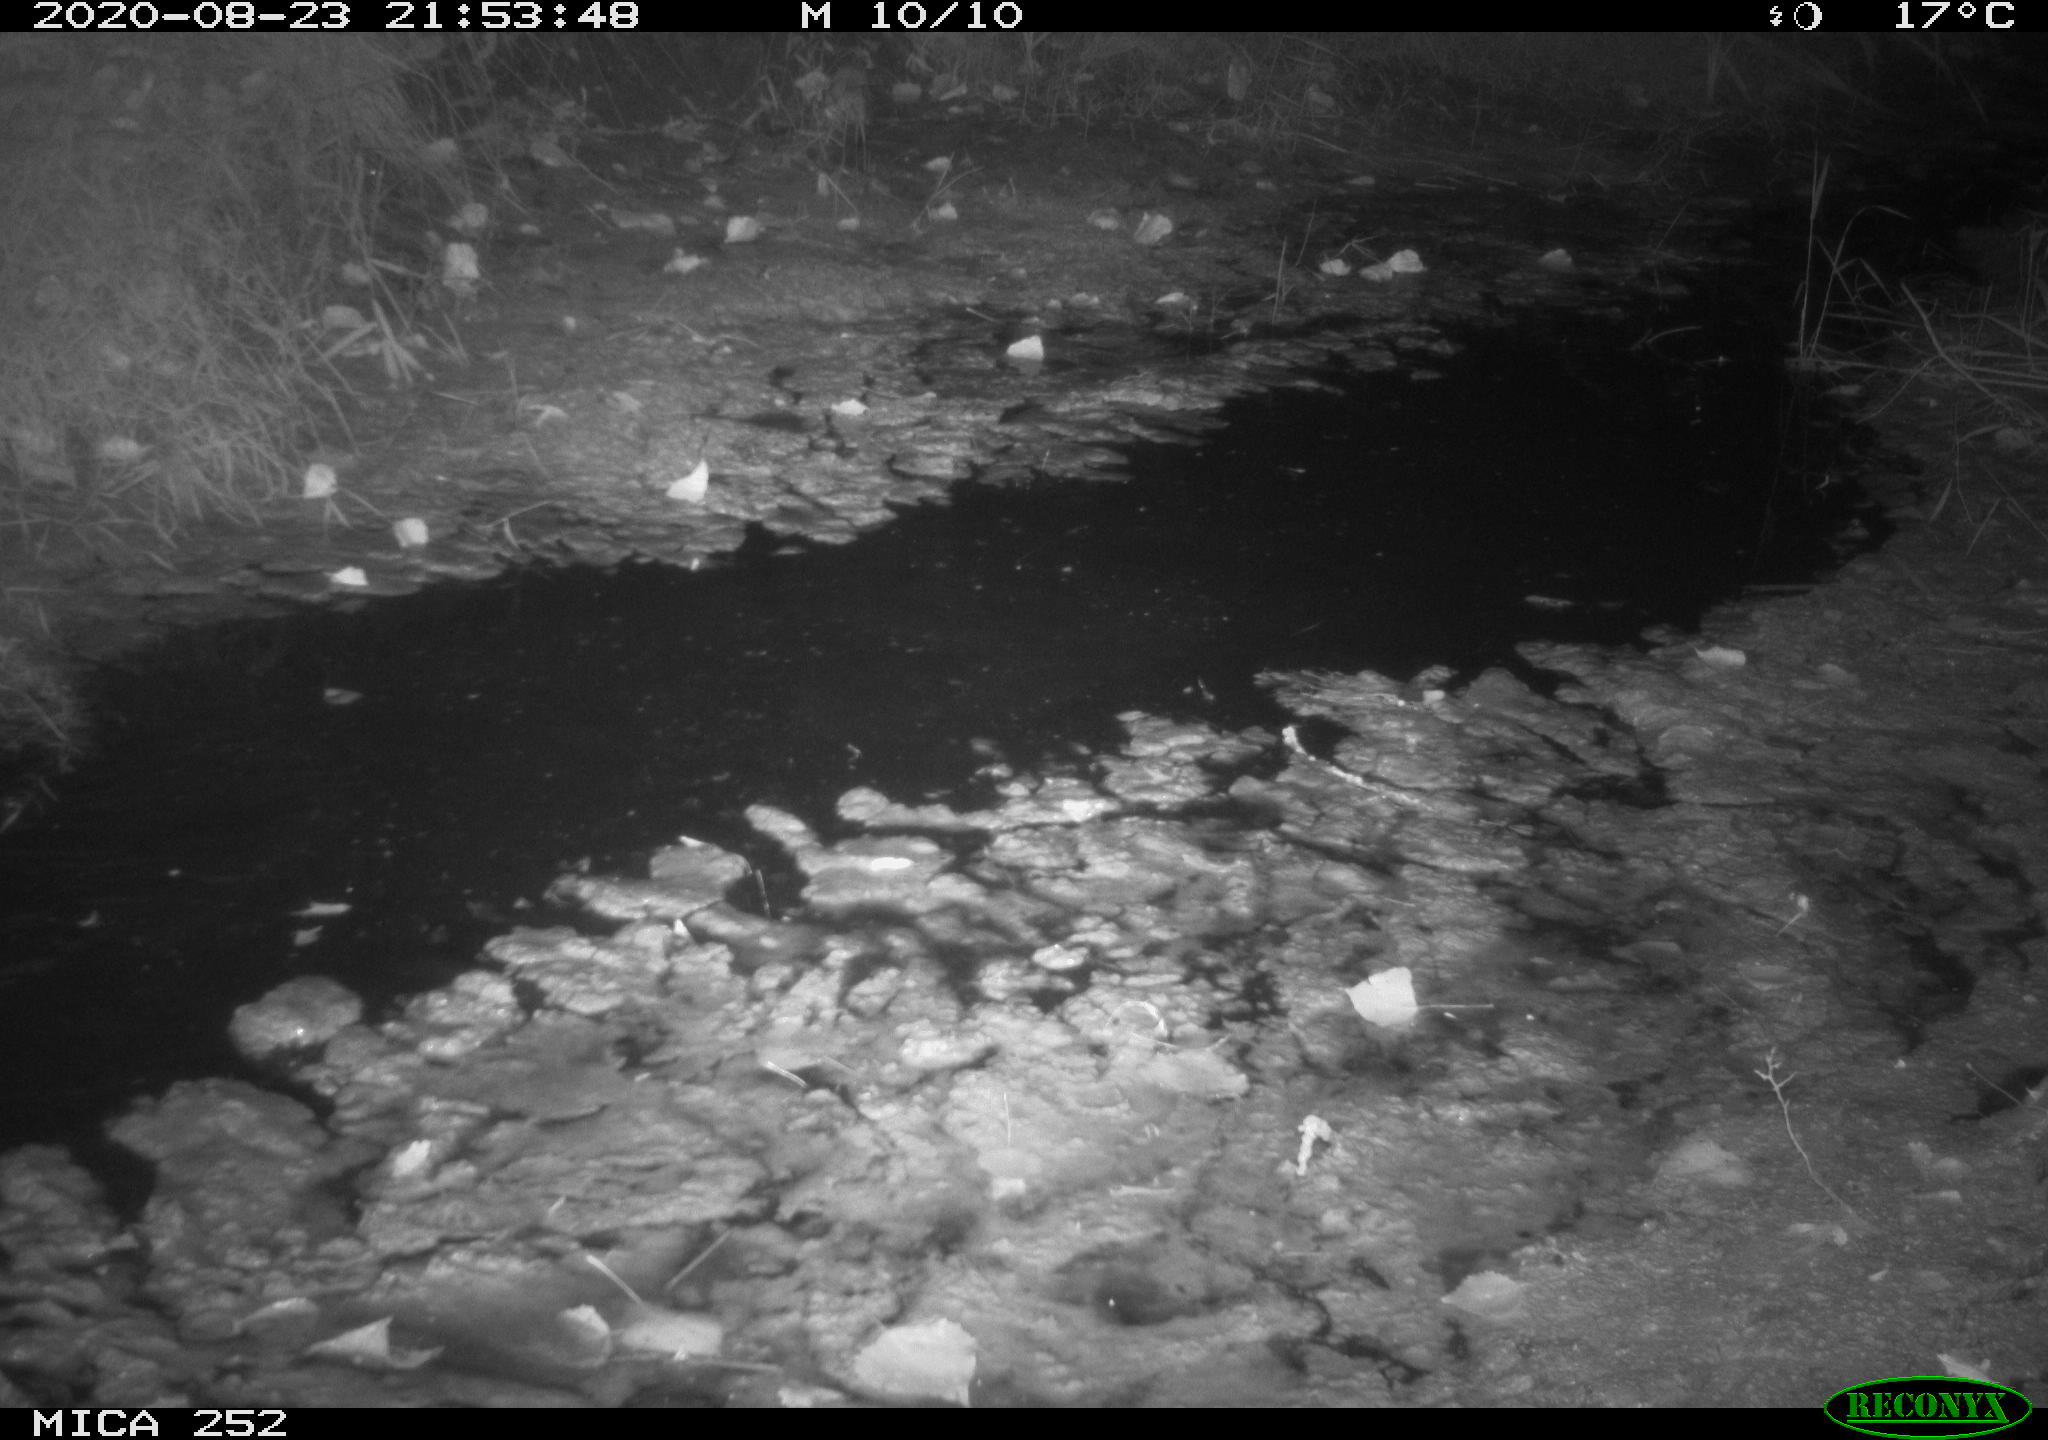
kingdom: Animalia
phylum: Chordata
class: Mammalia
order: Rodentia
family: Castoridae
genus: Castor
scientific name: Castor fiber
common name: Eurasian beaver
